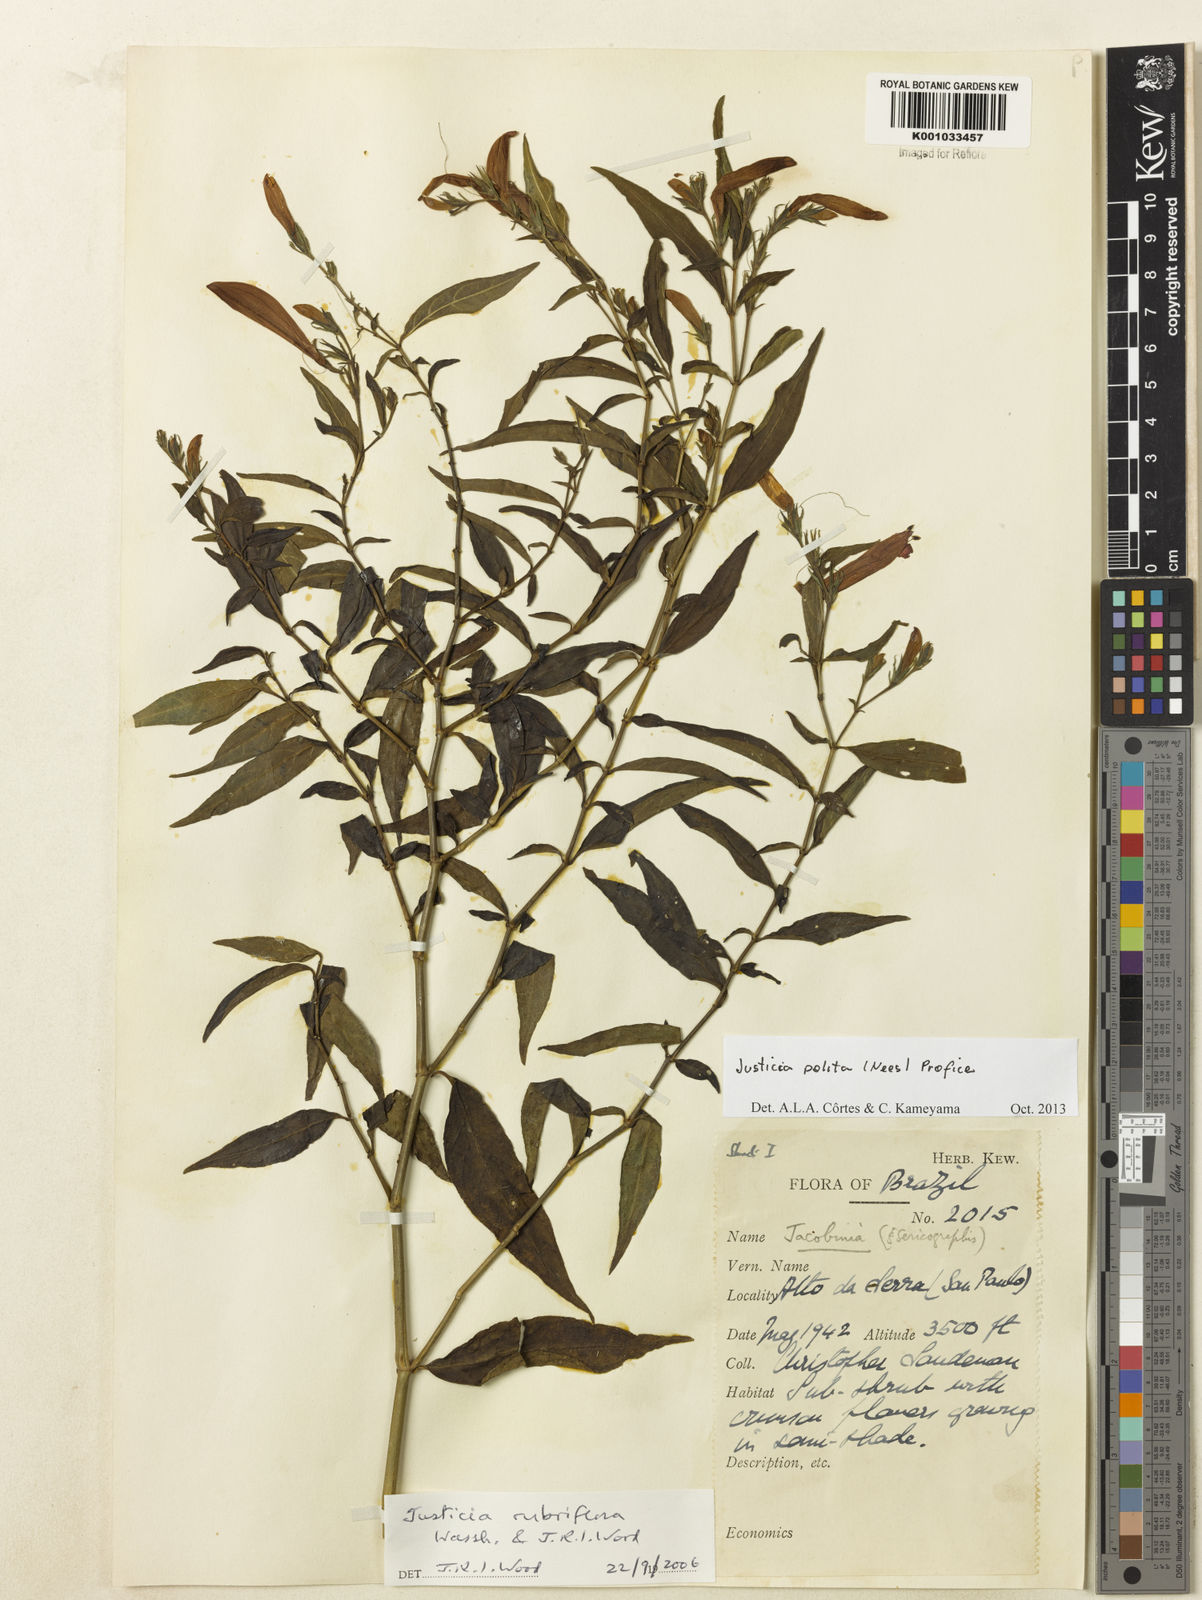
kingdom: Plantae
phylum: Tracheophyta
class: Magnoliopsida
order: Lamiales
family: Acanthaceae
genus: Justicia
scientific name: Justicia polita
